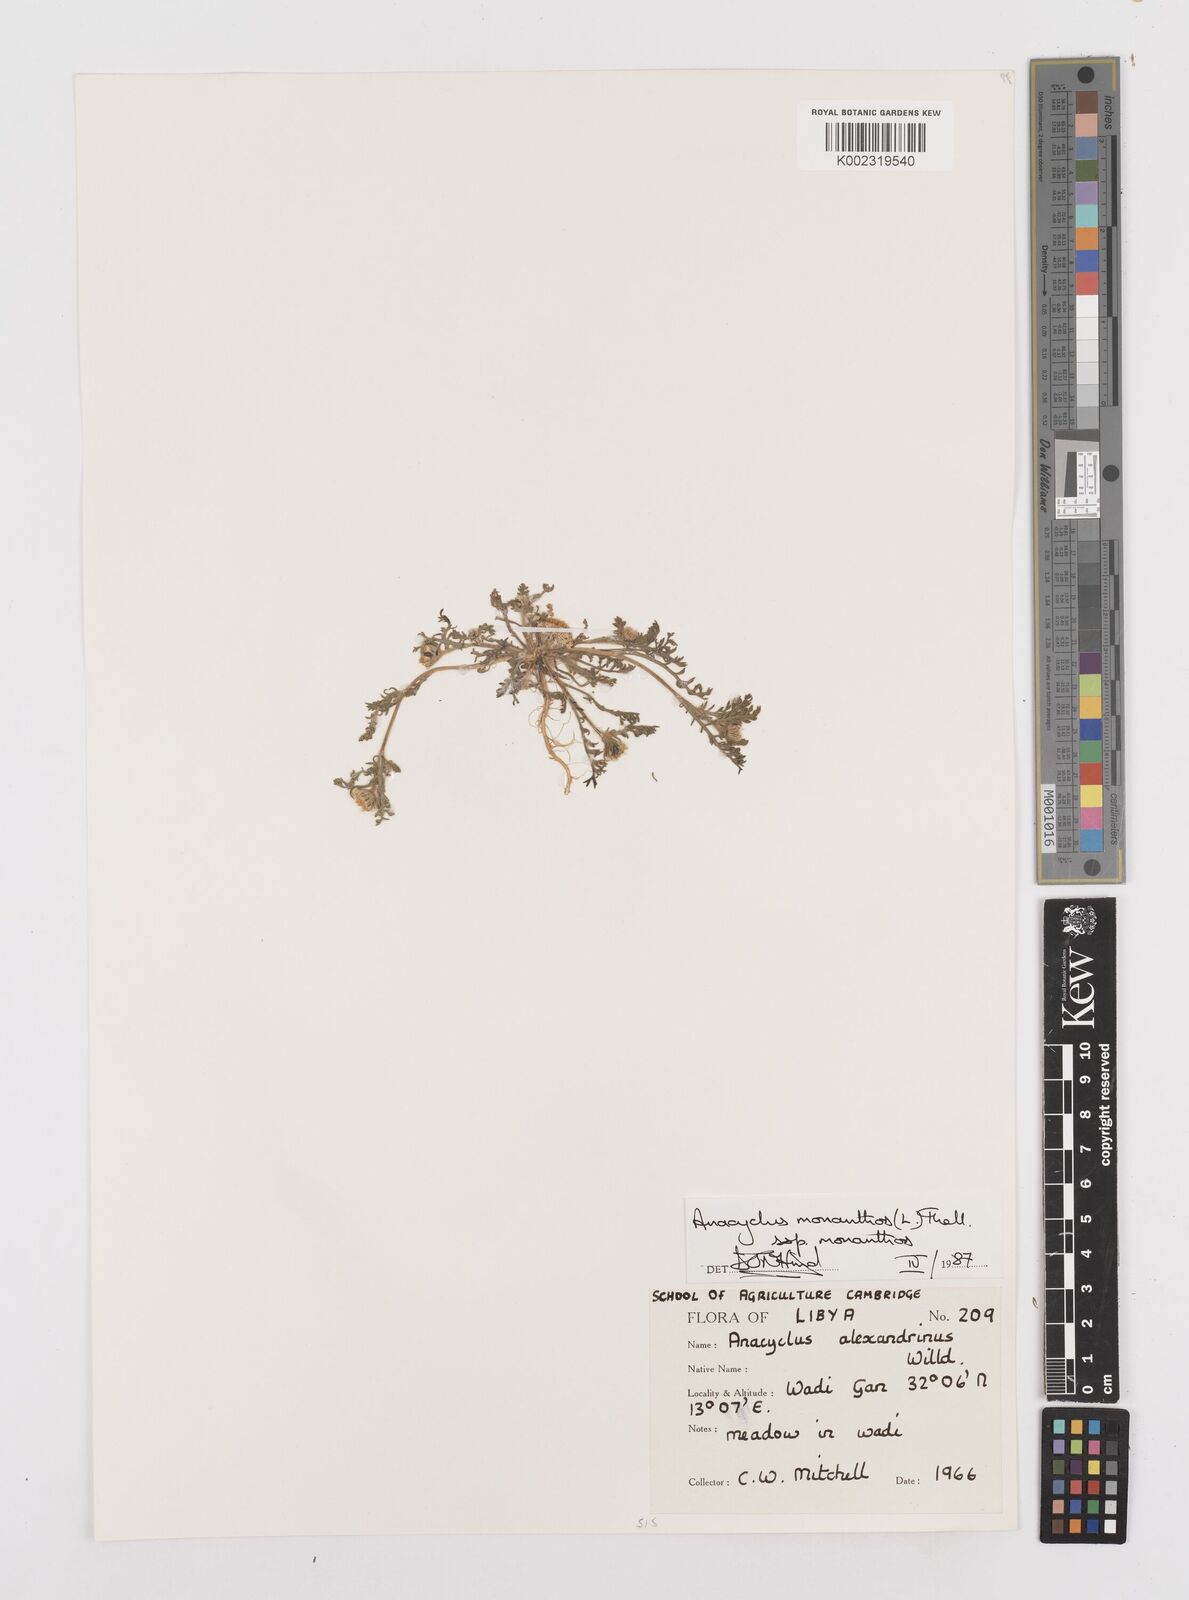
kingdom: Plantae
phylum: Tracheophyta
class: Magnoliopsida
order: Asterales
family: Asteraceae
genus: Anacyclus
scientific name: Anacyclus monanthos
